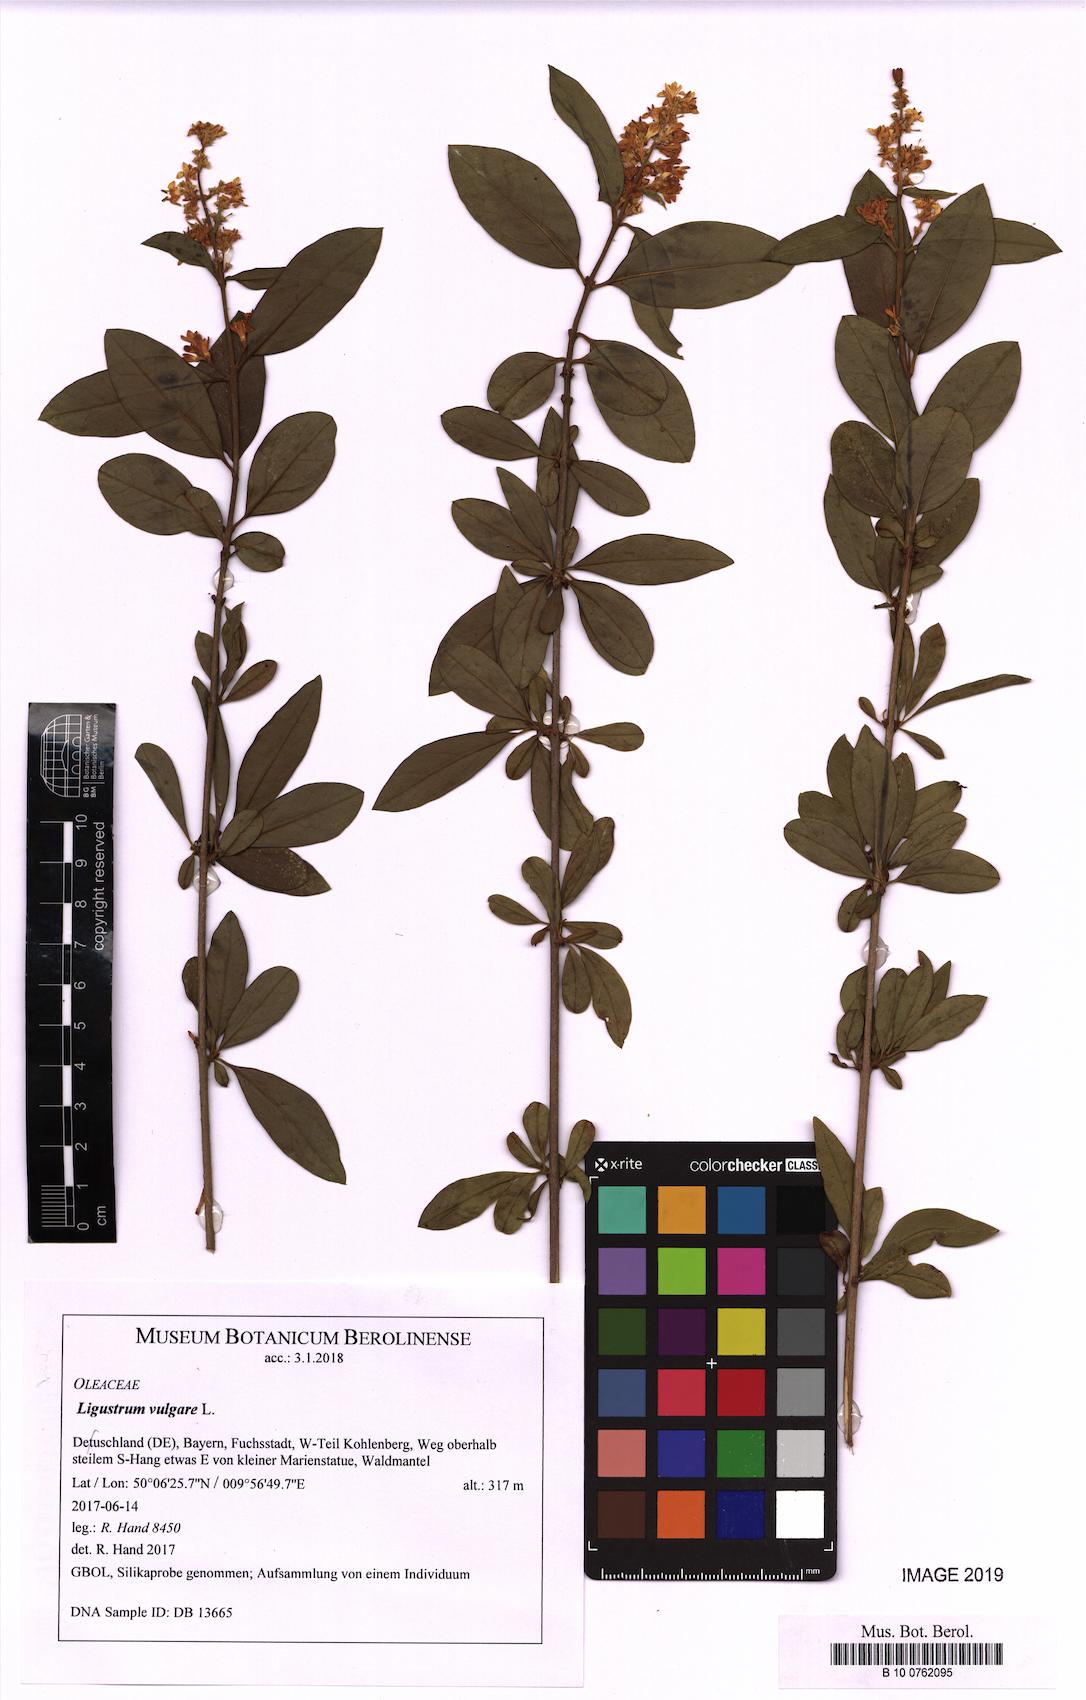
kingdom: Plantae
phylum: Tracheophyta
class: Magnoliopsida
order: Lamiales
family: Oleaceae
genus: Ligustrum
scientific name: Ligustrum vulgare
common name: Wild privet
